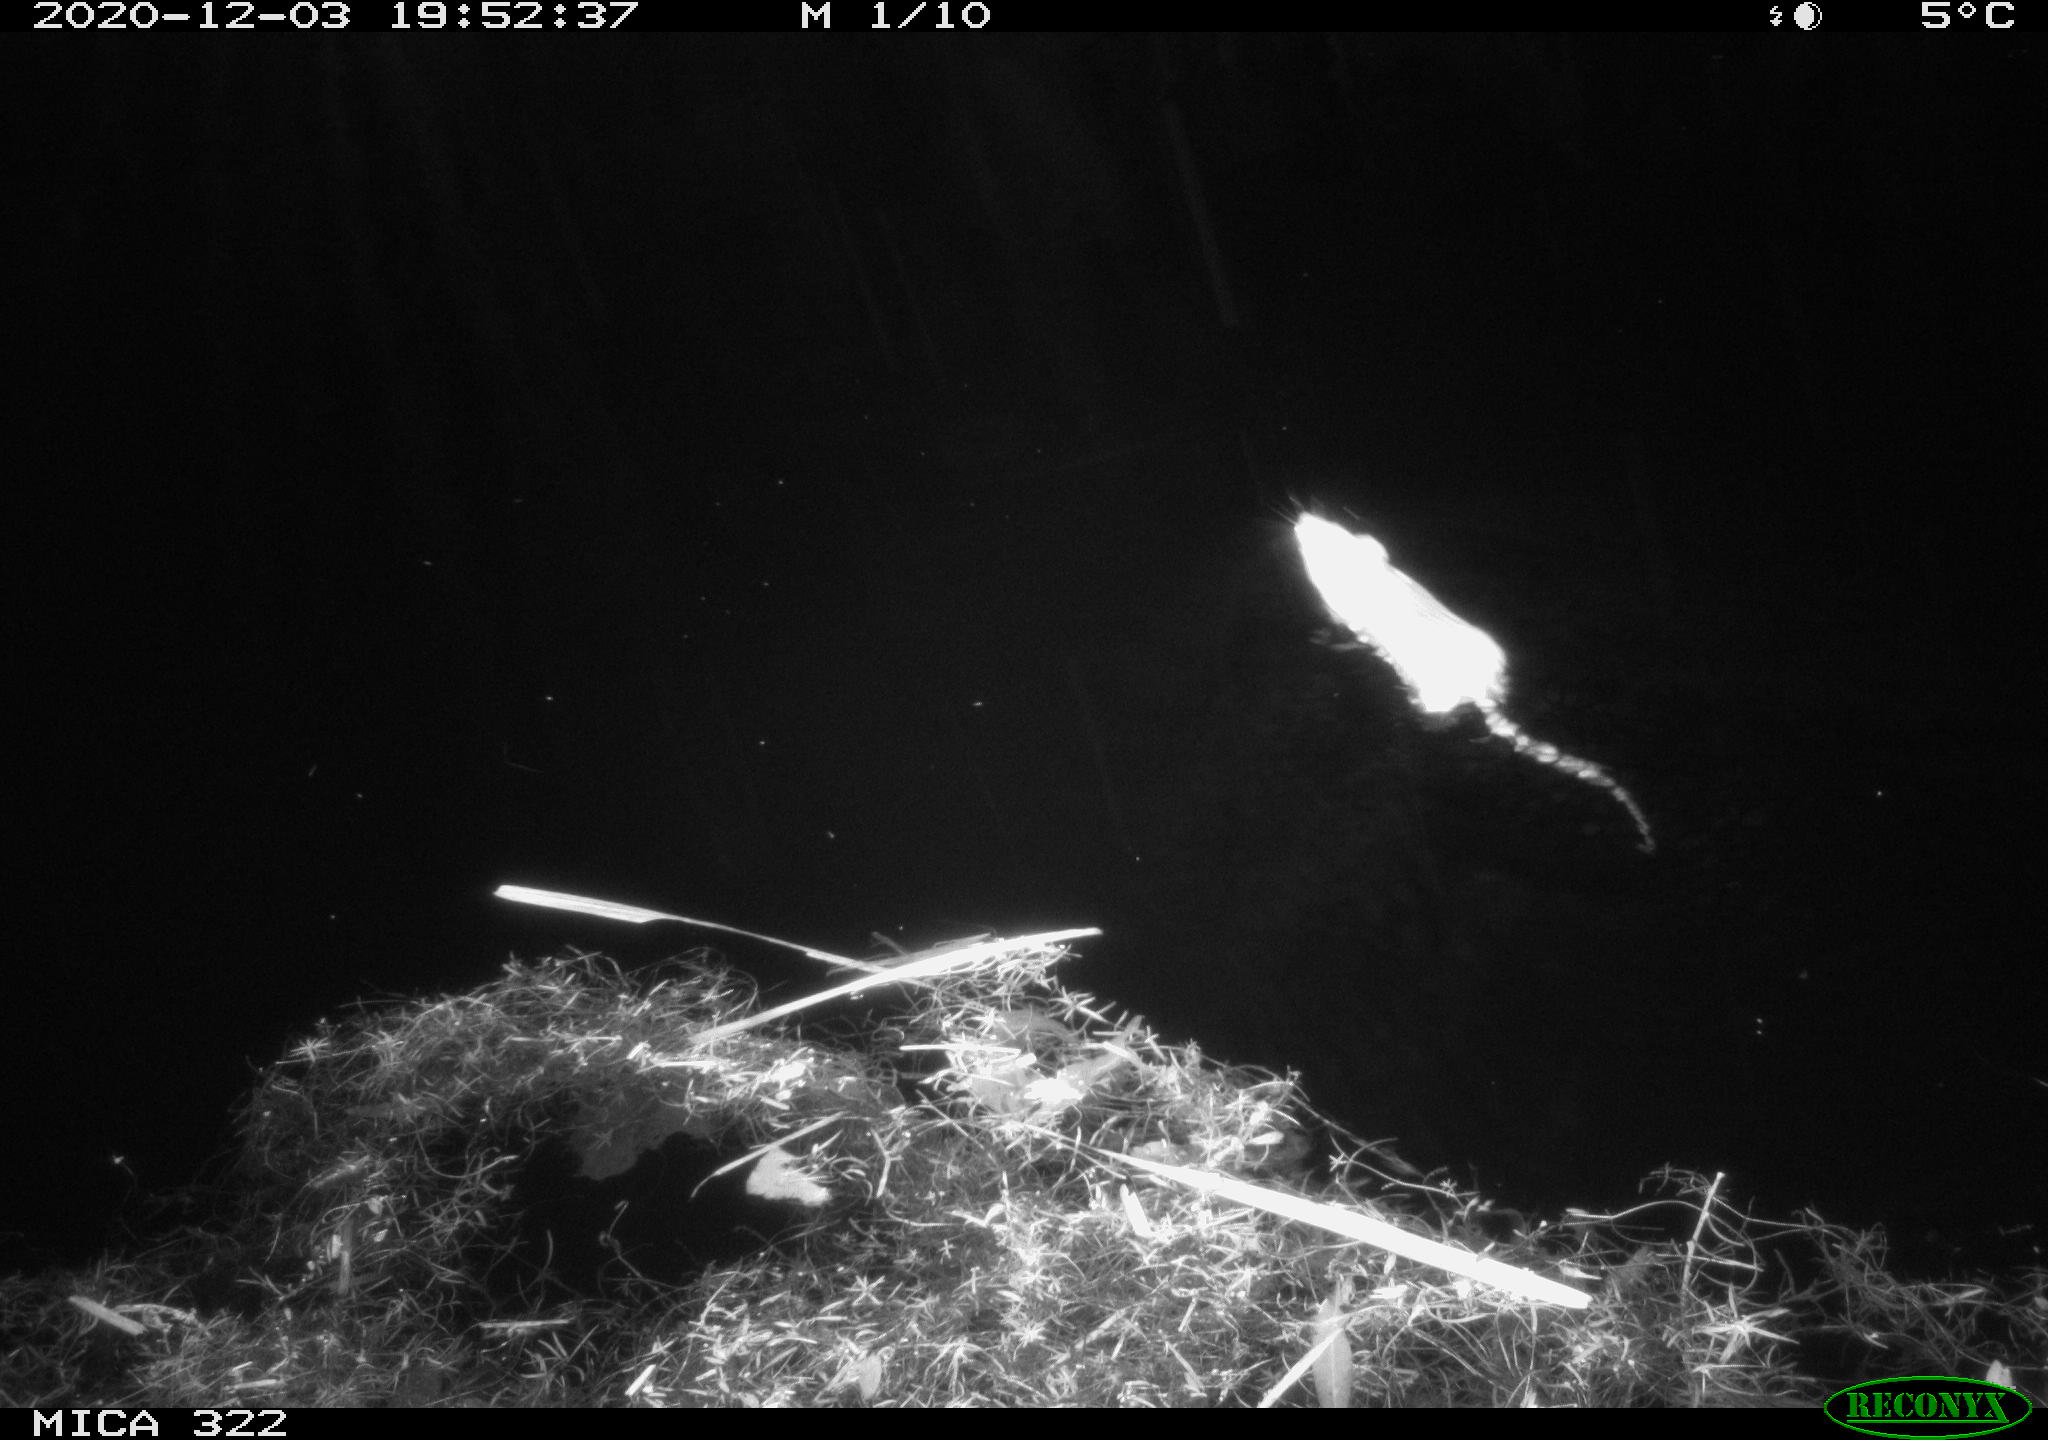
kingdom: Animalia
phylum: Chordata
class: Mammalia
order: Rodentia
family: Muridae
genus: Rattus
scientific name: Rattus norvegicus
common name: Brown rat
